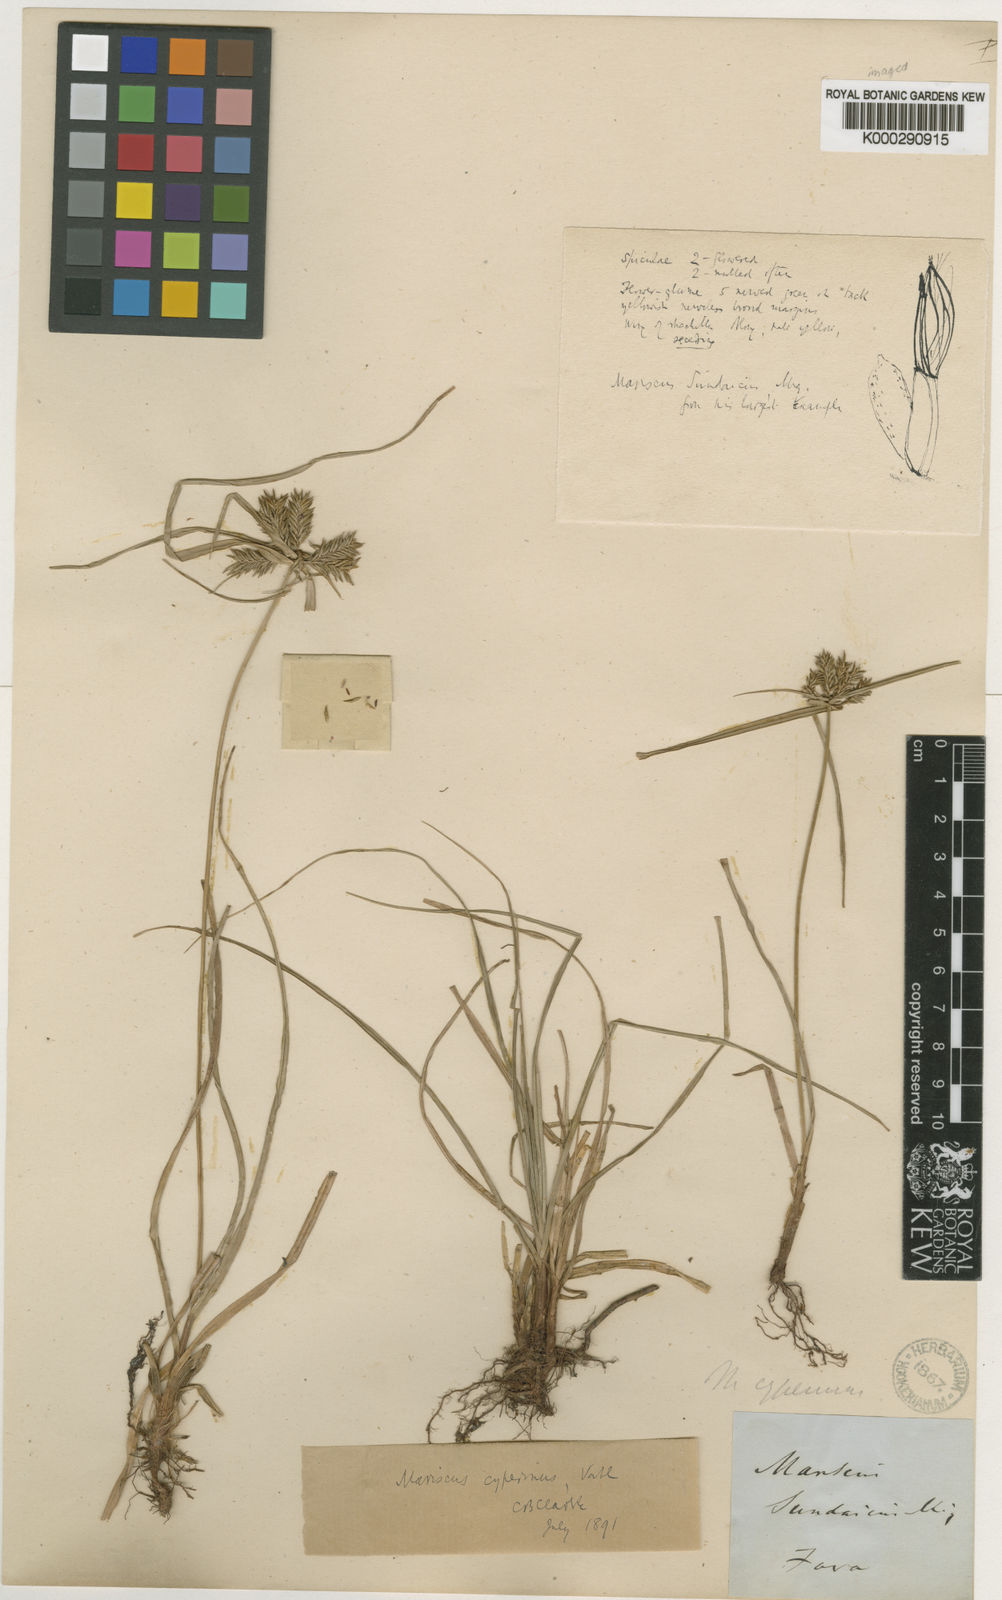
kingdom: Plantae
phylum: Tracheophyta
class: Liliopsida
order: Poales
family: Cyperaceae
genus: Cyperus
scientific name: Cyperus cyperinus
